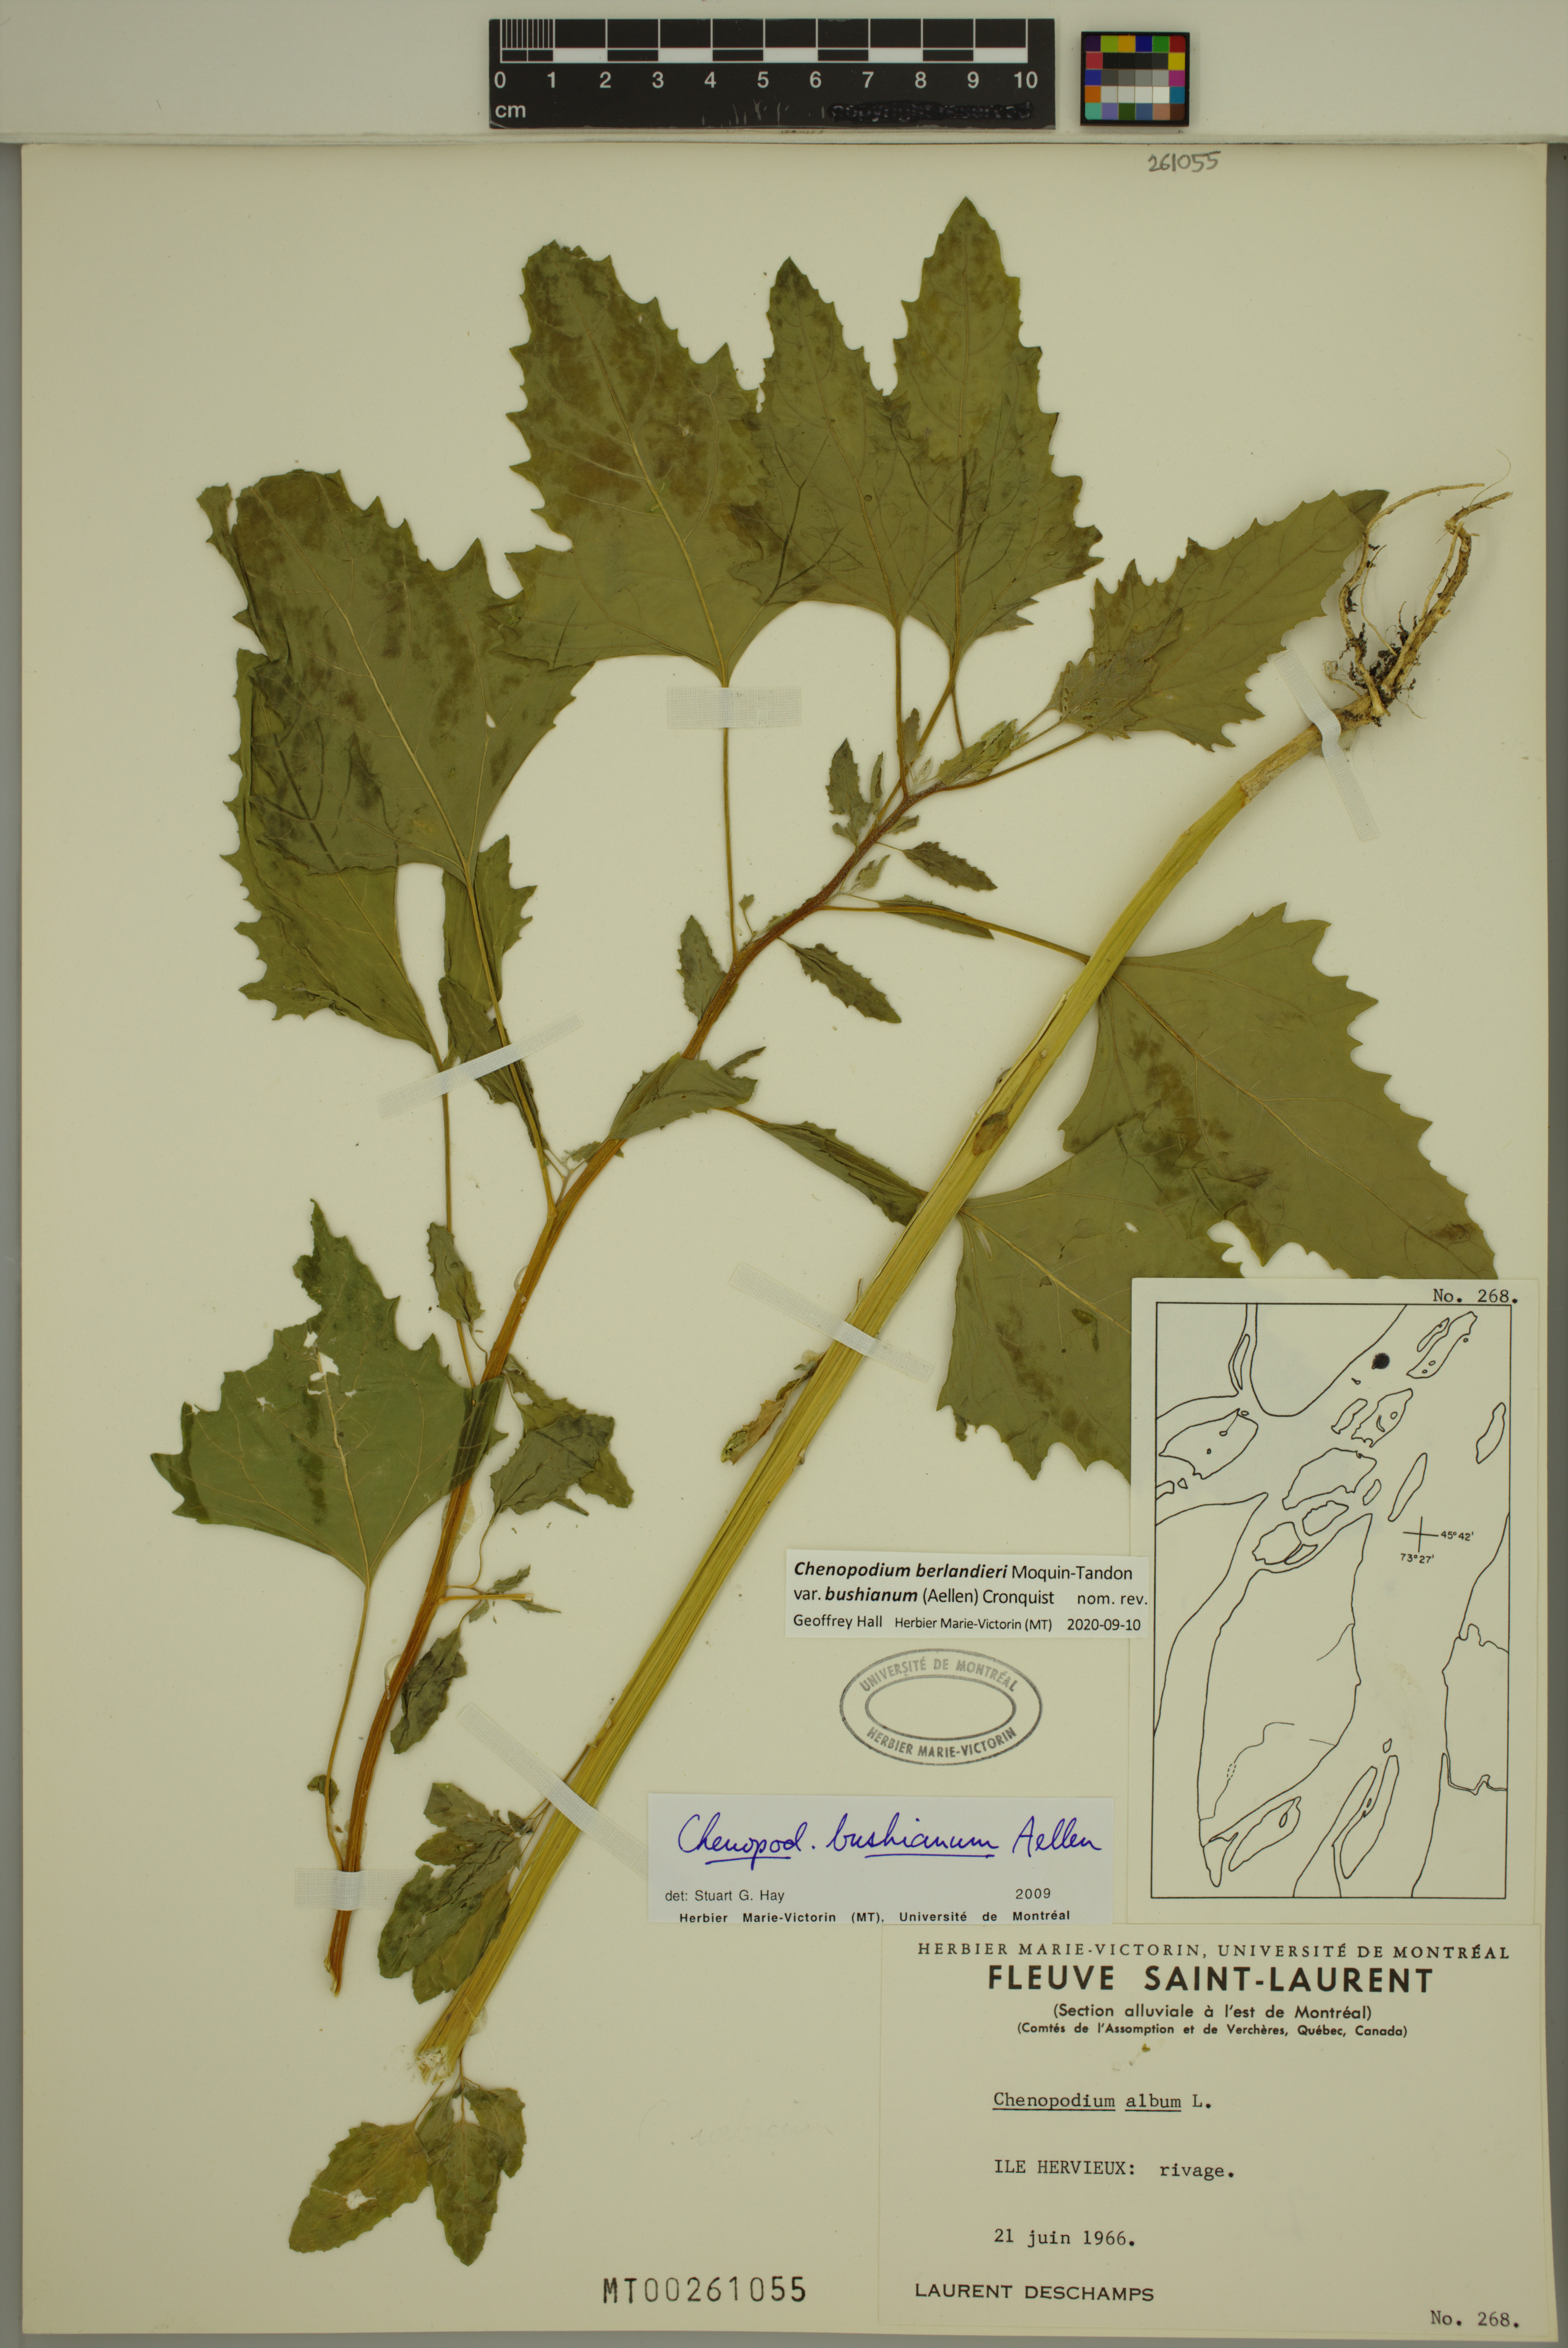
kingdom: Plantae
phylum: Tracheophyta
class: Magnoliopsida
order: Caryophyllales
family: Amaranthaceae
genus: Chenopodium
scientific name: Chenopodium berlandieri
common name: Pit-seed goosefoot
